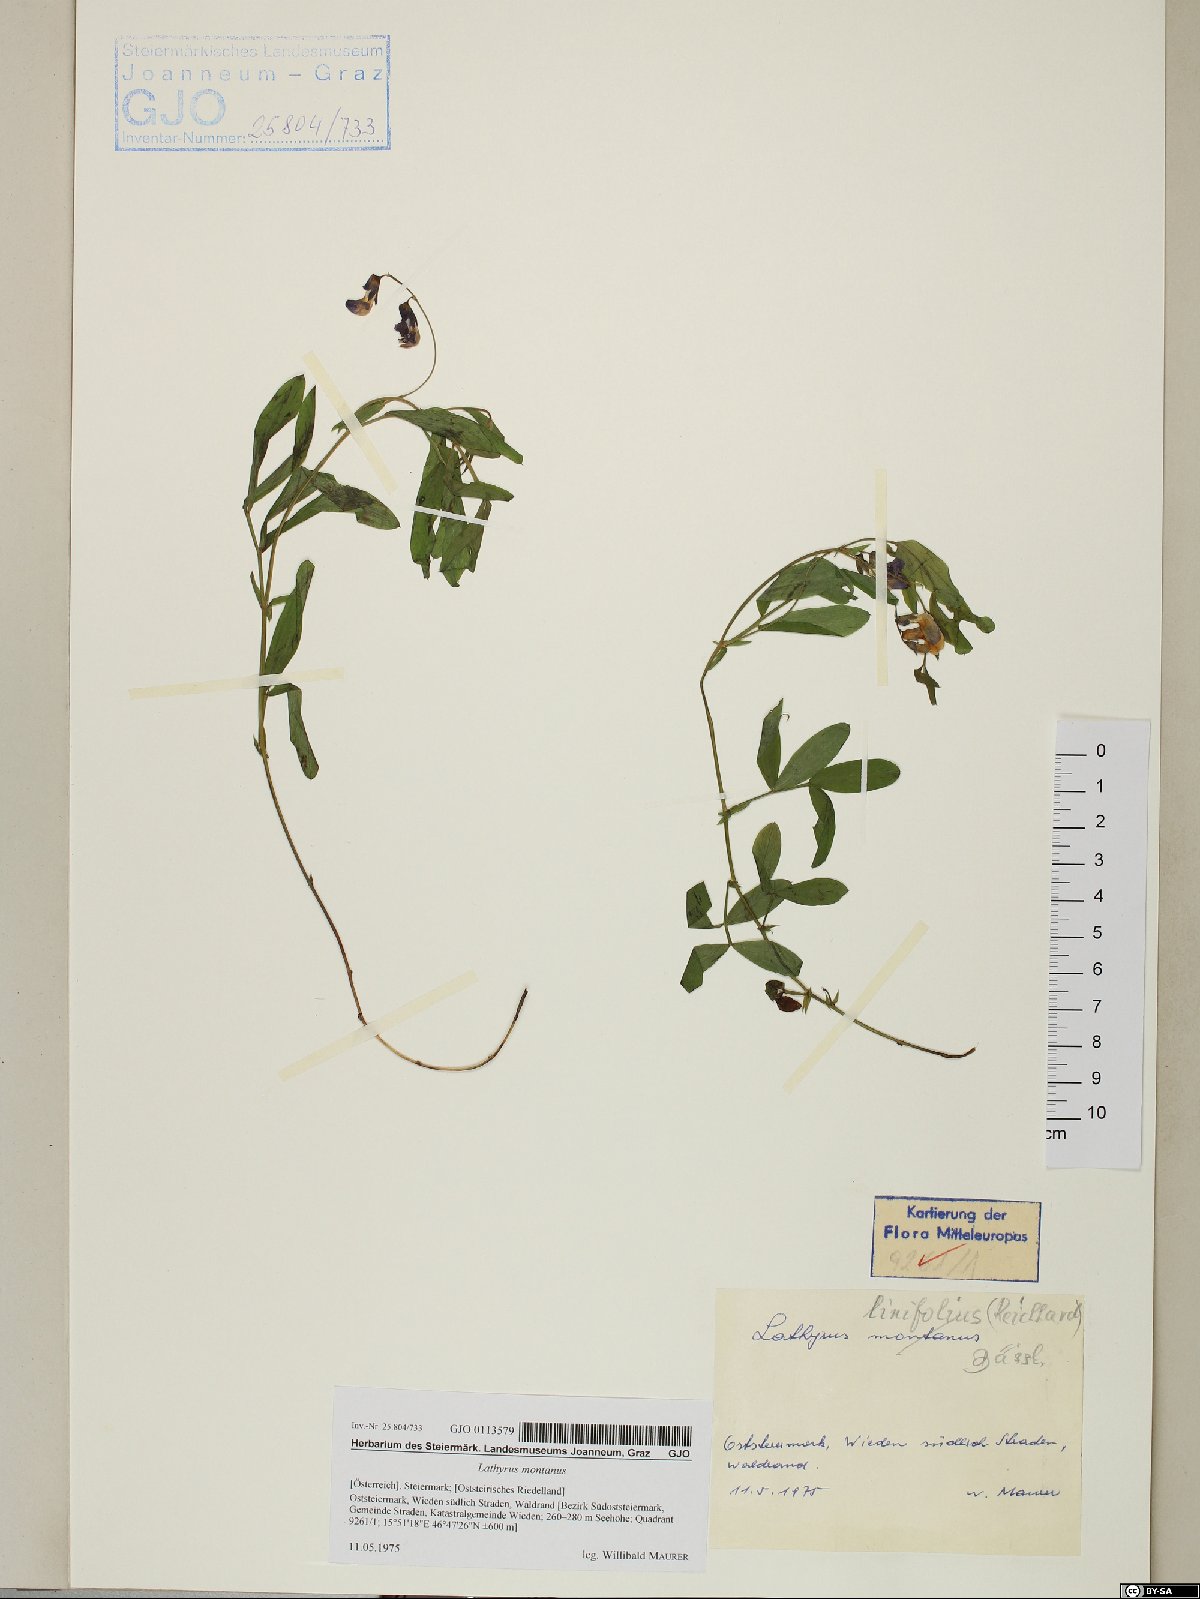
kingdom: Plantae
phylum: Tracheophyta
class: Magnoliopsida
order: Fabales
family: Fabaceae
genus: Lathyrus
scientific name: Lathyrus linifolius
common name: Bitter-vetch
